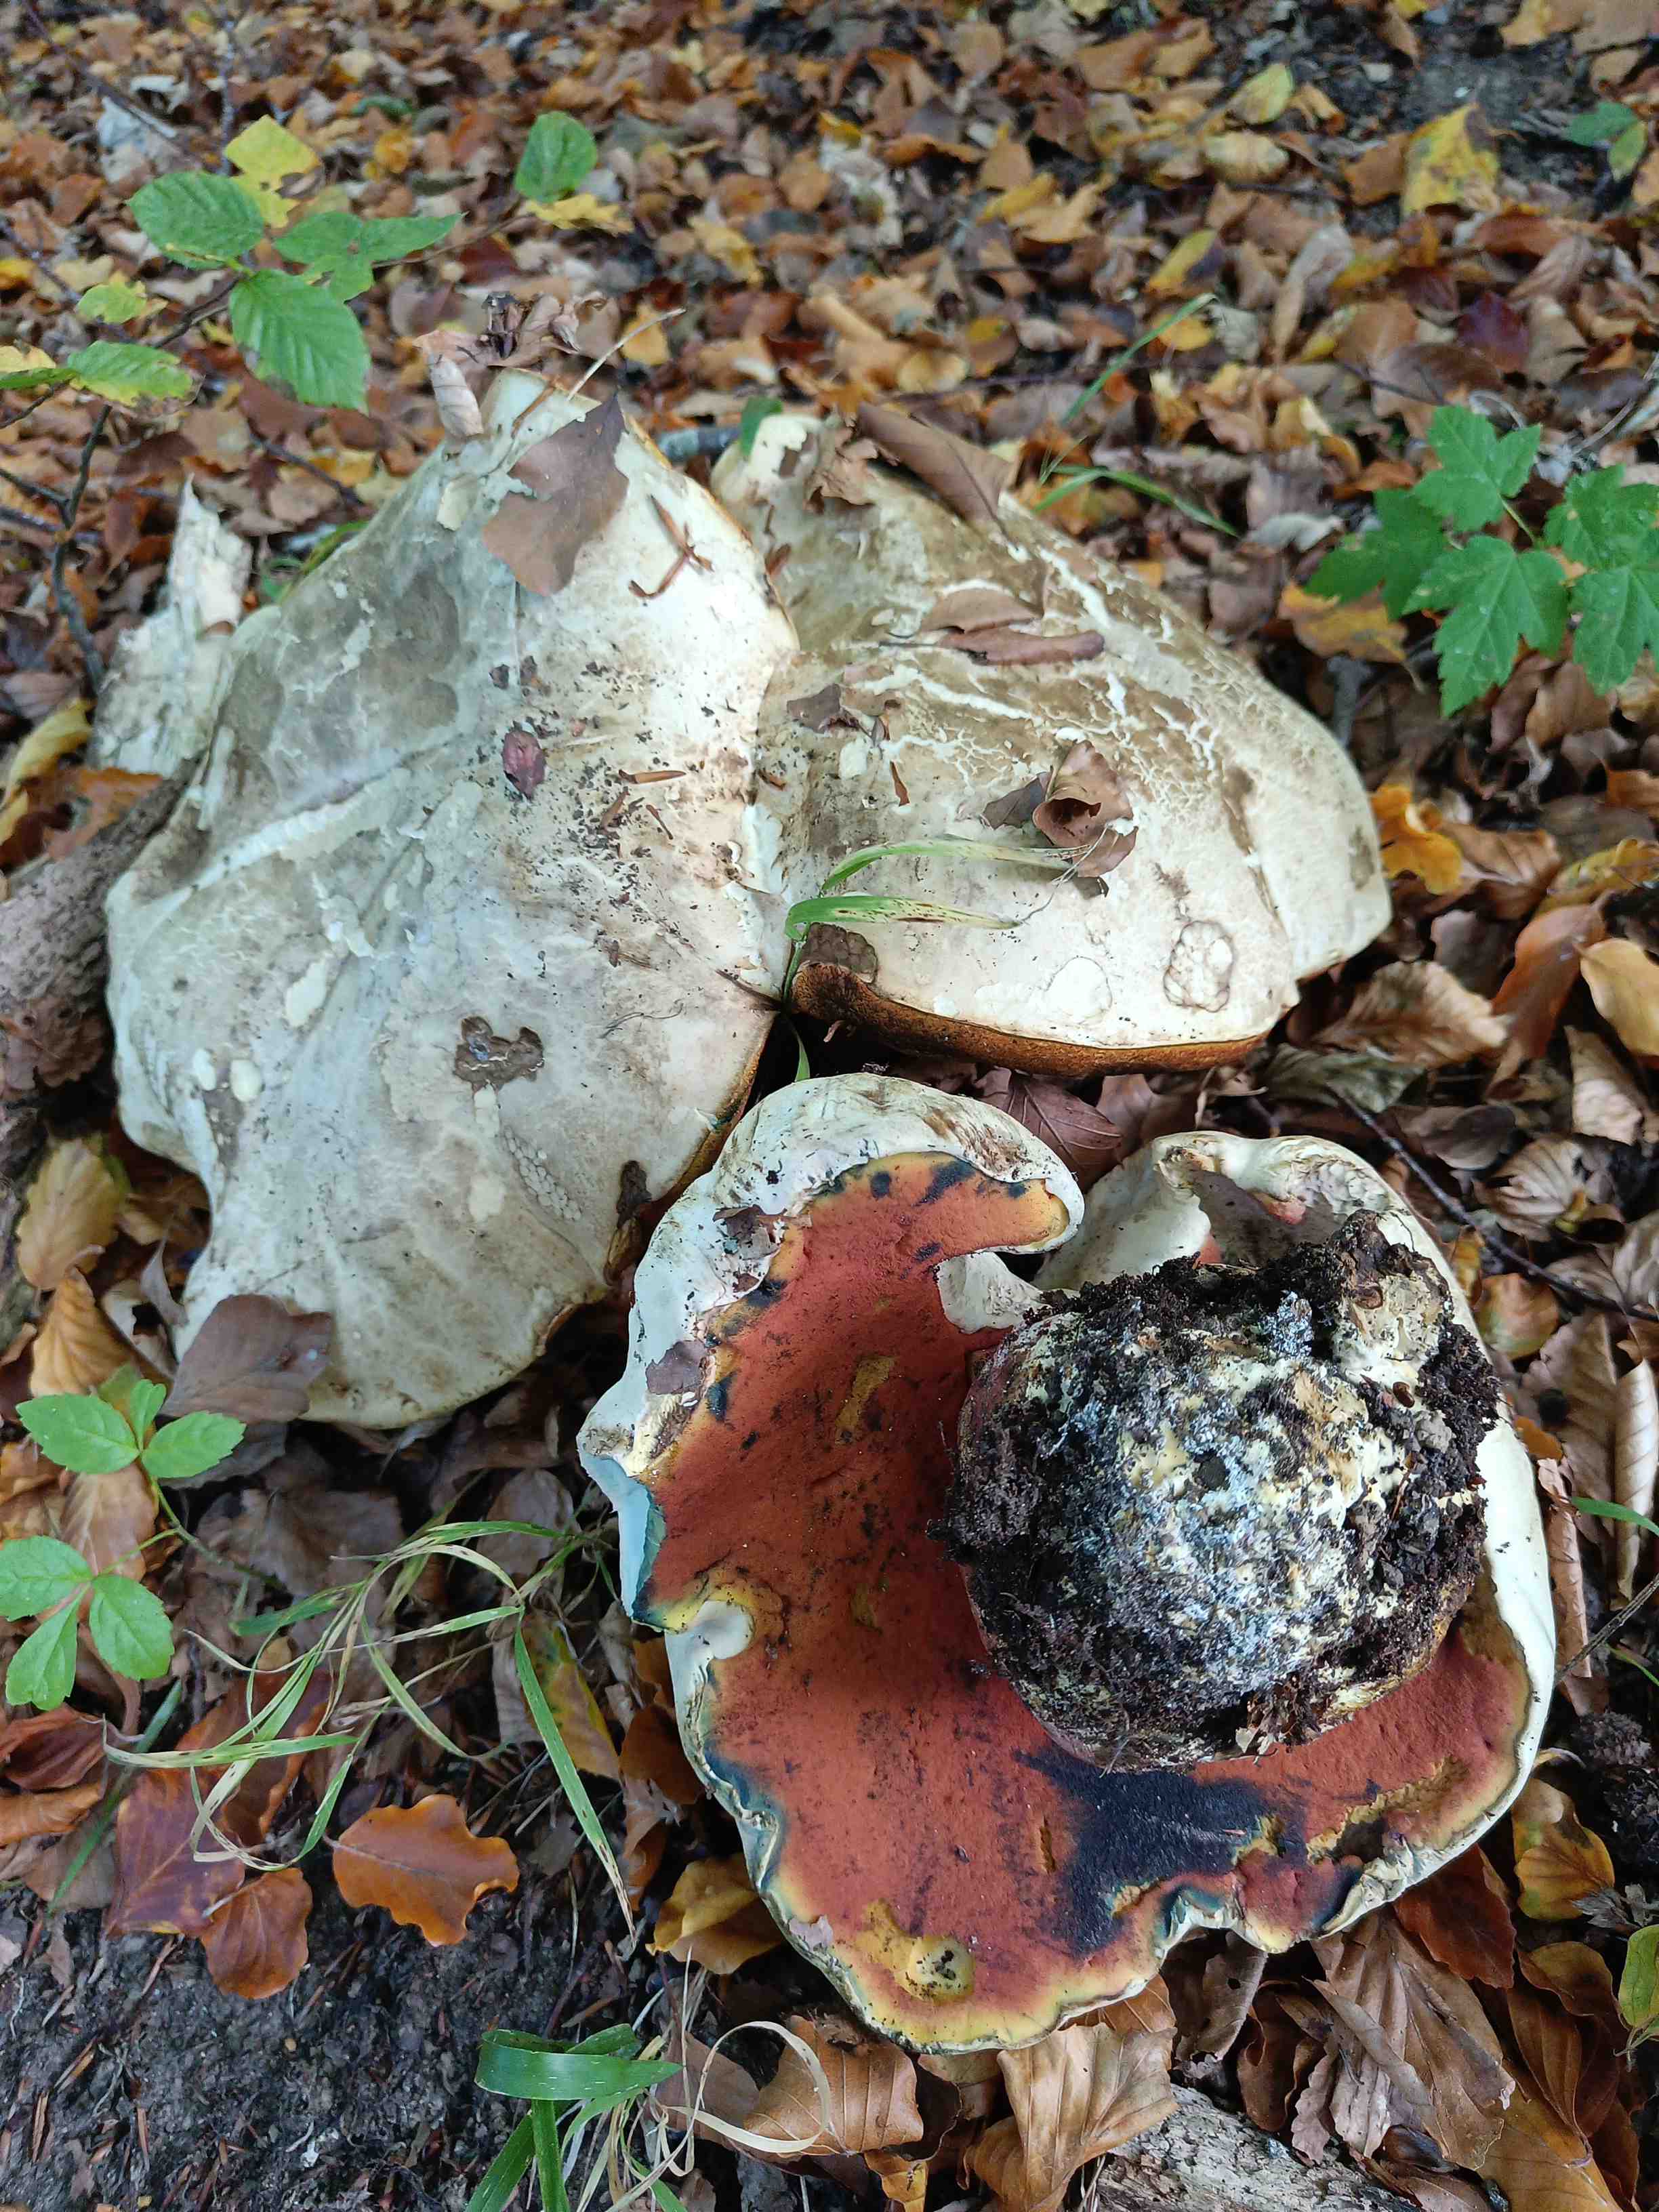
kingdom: Fungi
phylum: Basidiomycota
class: Agaricomycetes
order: Boletales
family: Boletaceae
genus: Rubroboletus
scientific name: Rubroboletus satanas
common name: Satans rørhat
